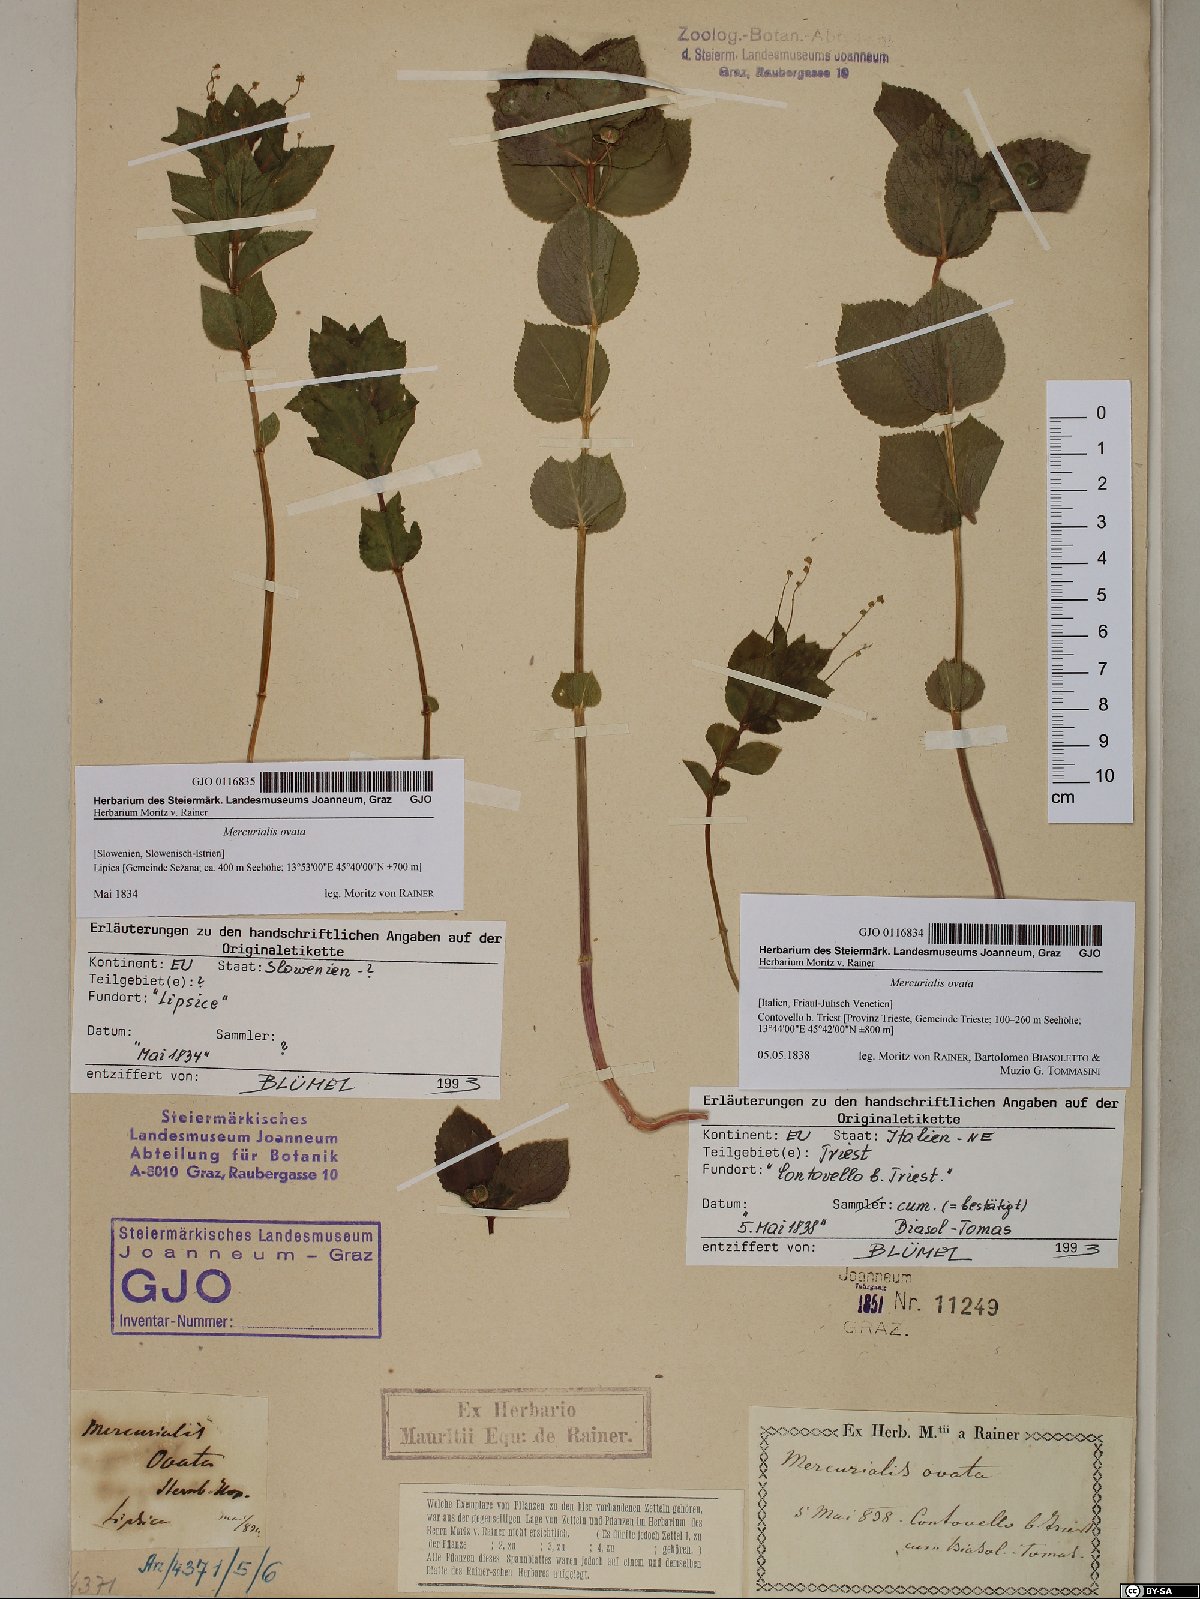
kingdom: Plantae
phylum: Tracheophyta
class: Magnoliopsida
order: Malpighiales
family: Euphorbiaceae
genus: Mercurialis
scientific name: Mercurialis ovata
